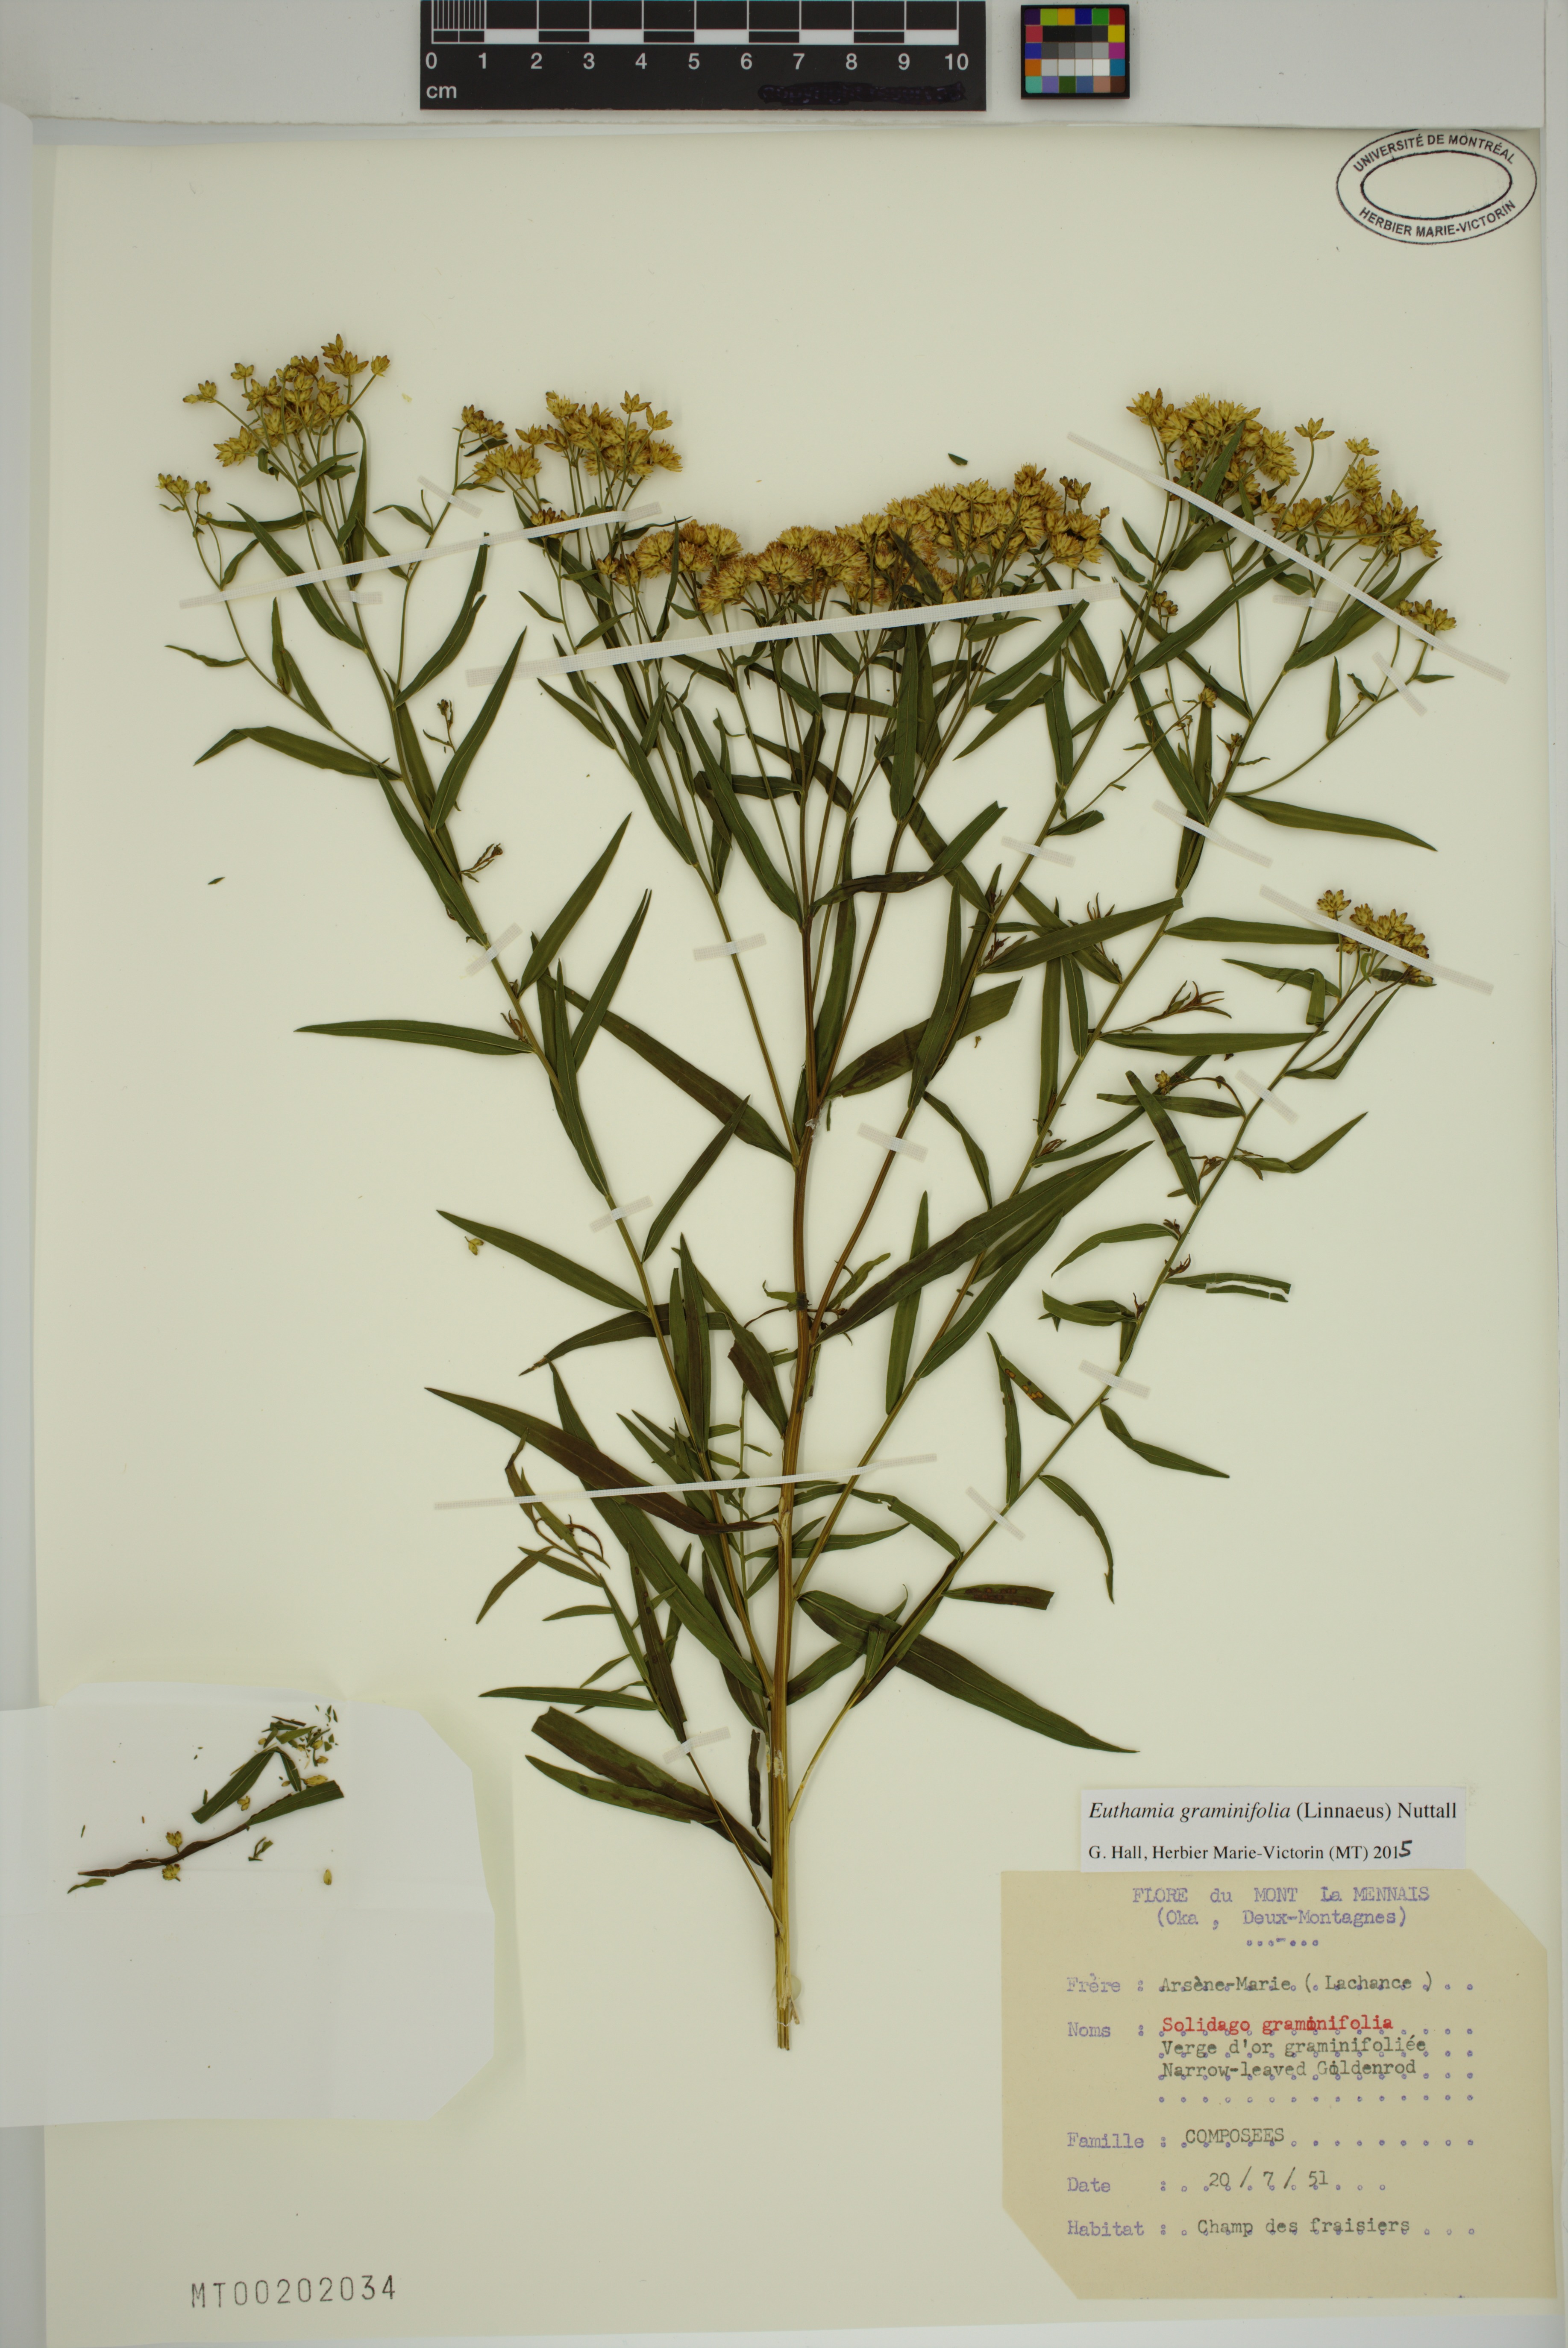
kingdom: Plantae
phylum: Tracheophyta
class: Magnoliopsida
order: Asterales
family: Asteraceae
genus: Euthamia
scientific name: Euthamia graminifolia
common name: Common goldentop
